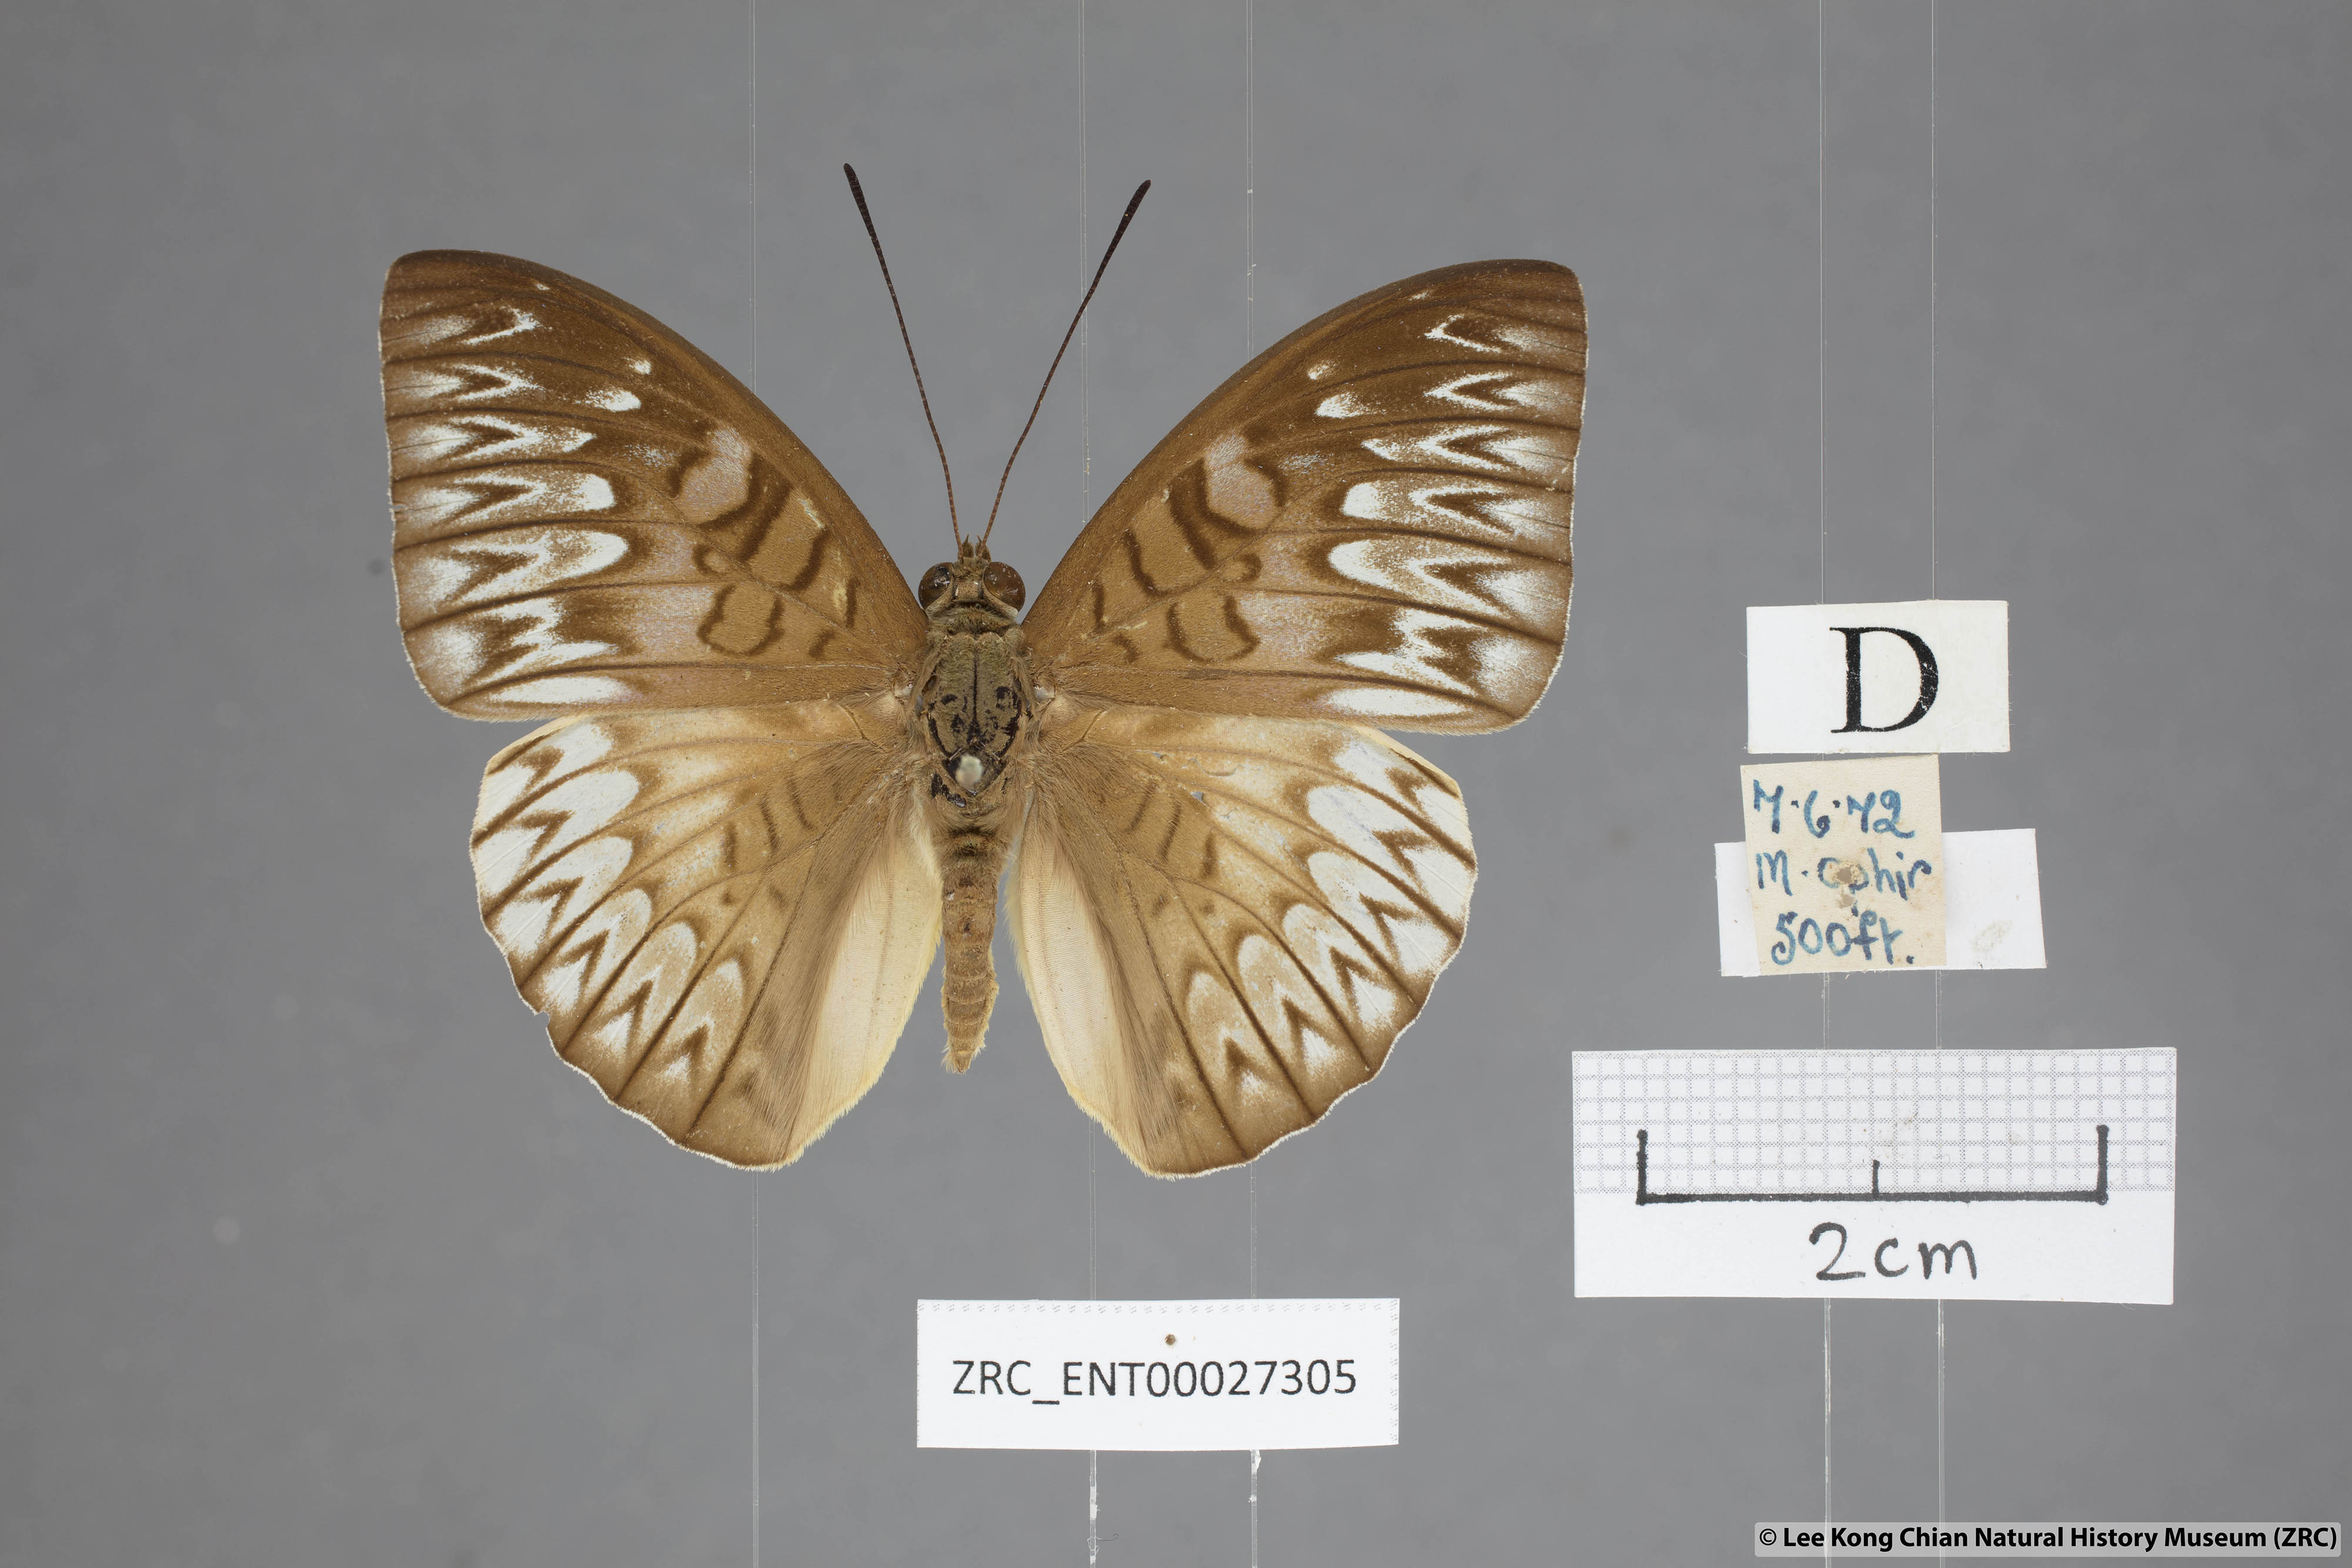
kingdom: Animalia
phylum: Arthropoda
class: Insecta
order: Lepidoptera
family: Nymphalidae
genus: Tanaecia
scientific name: Tanaecia munda
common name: Peninsular viscount
